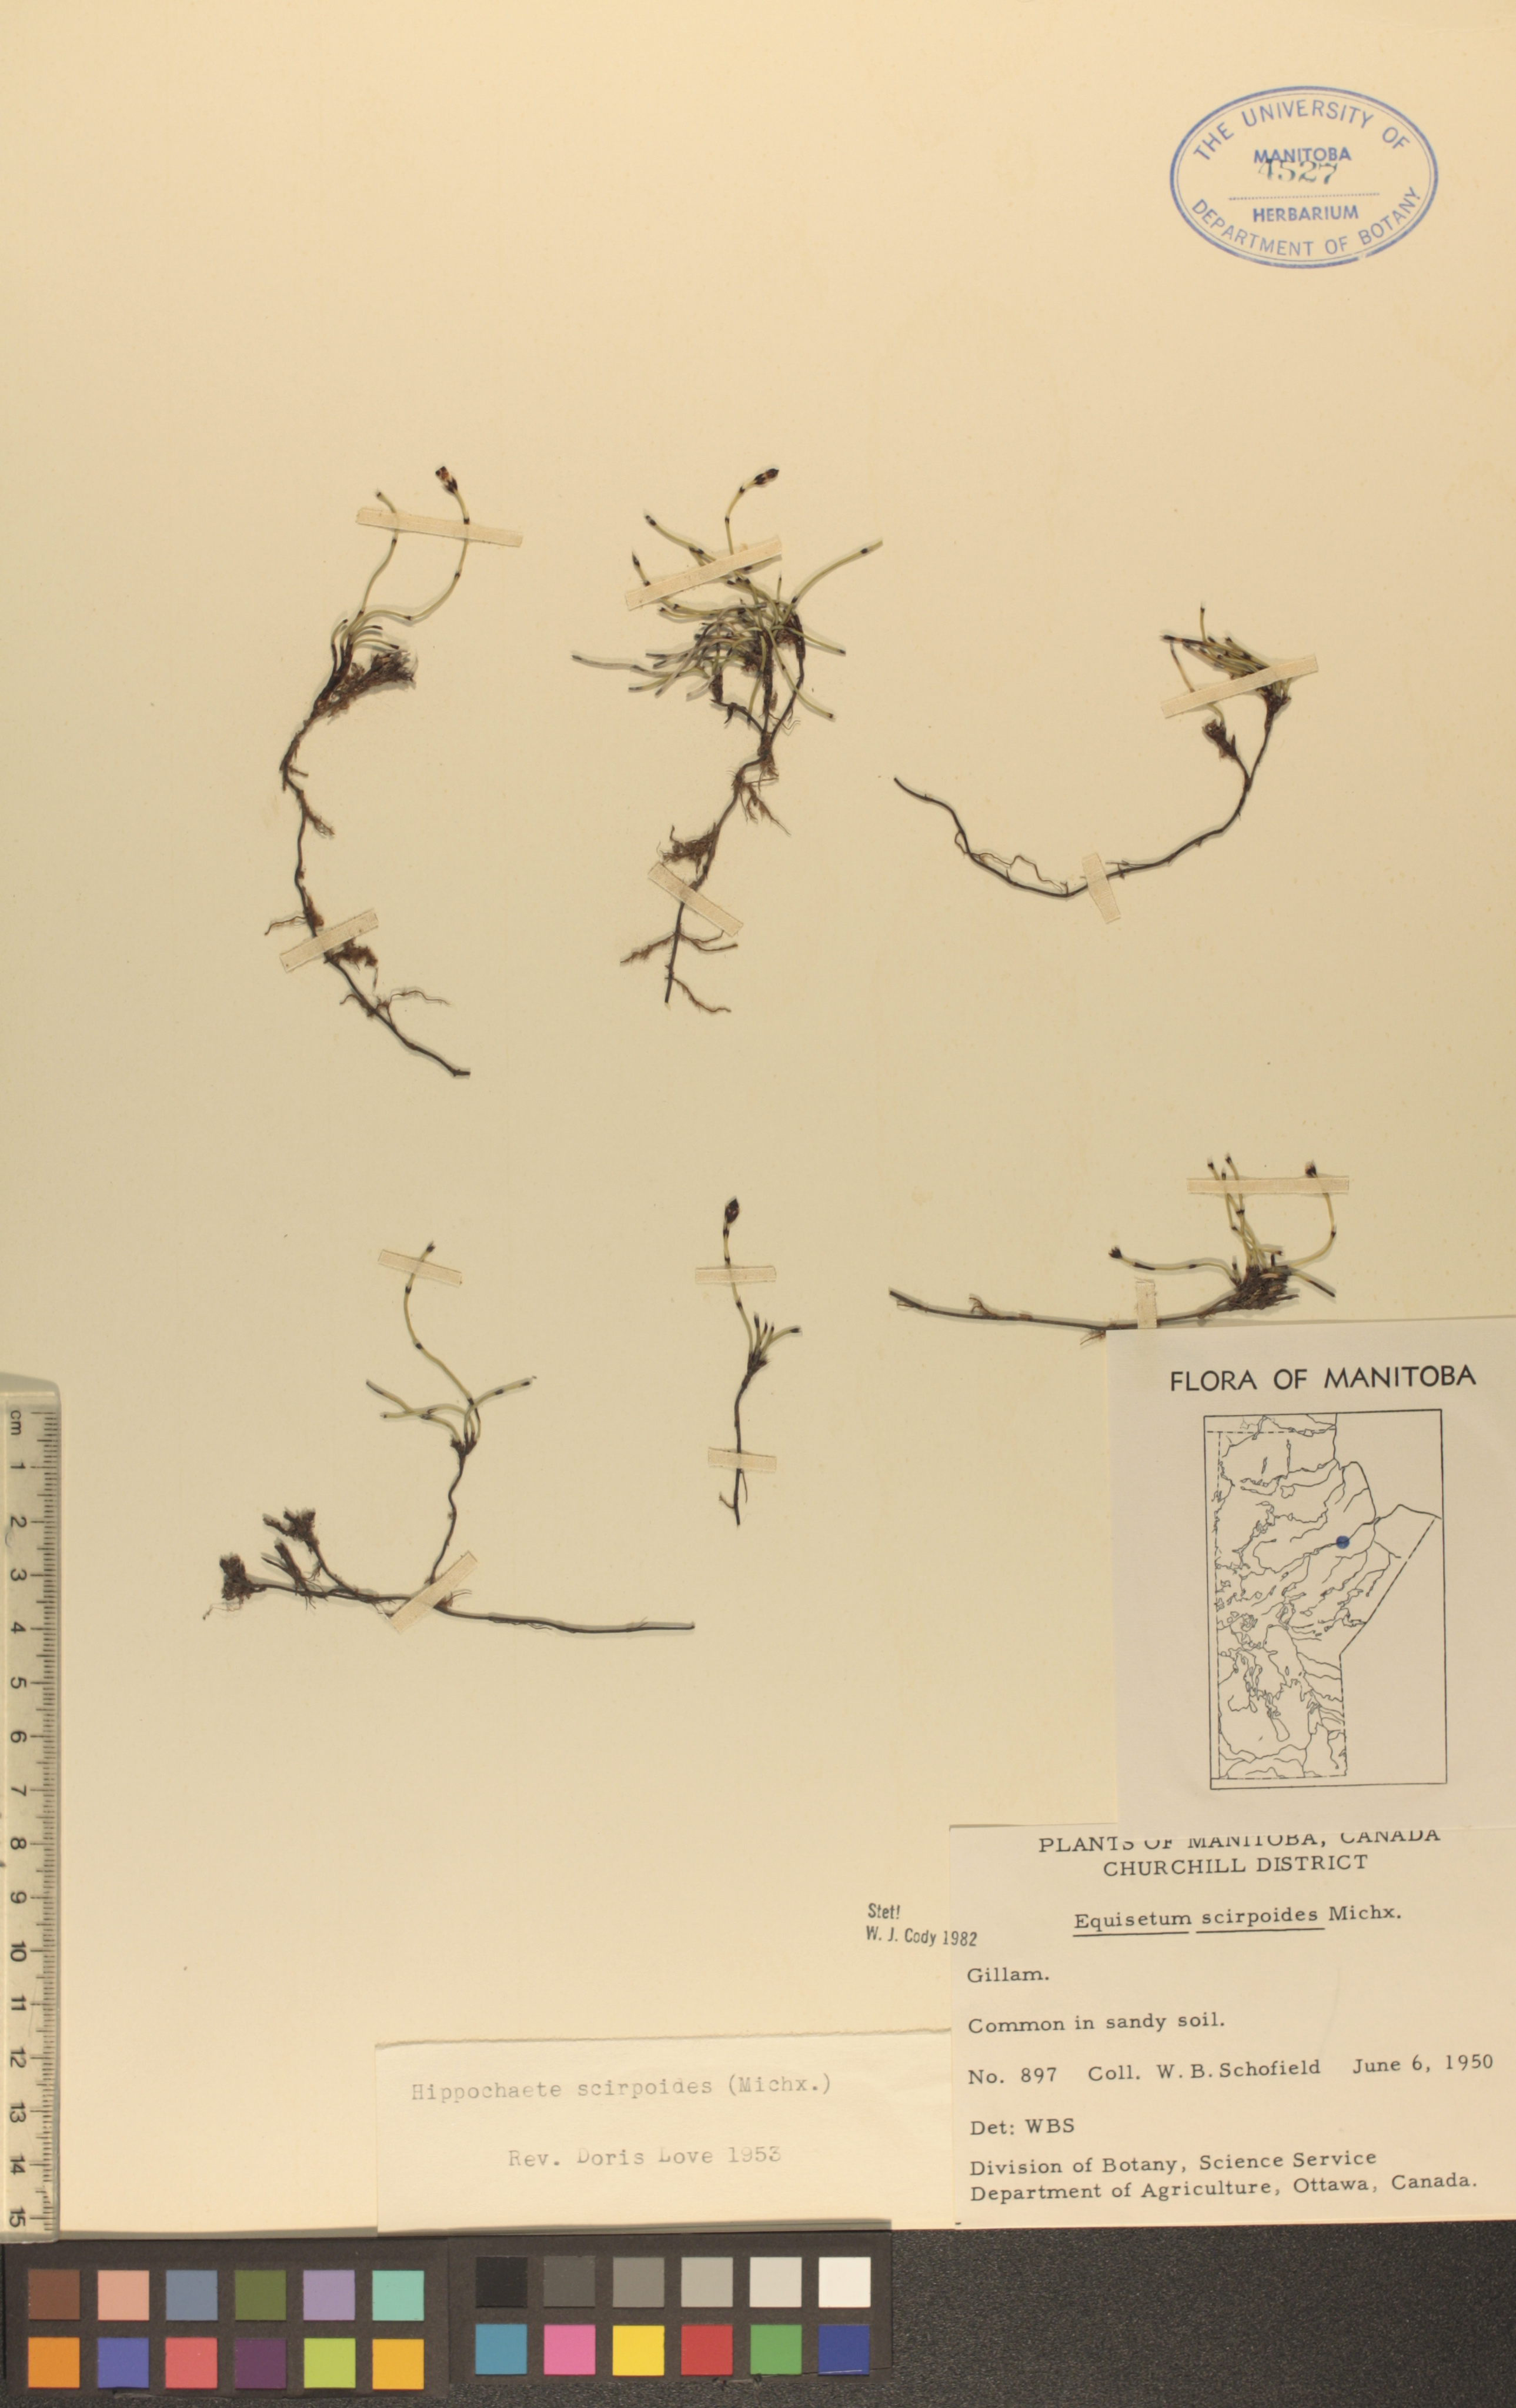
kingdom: Plantae
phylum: Tracheophyta
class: Polypodiopsida
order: Equisetales
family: Equisetaceae
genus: Equisetum
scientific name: Equisetum scirpoides
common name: Delicate horsetail
